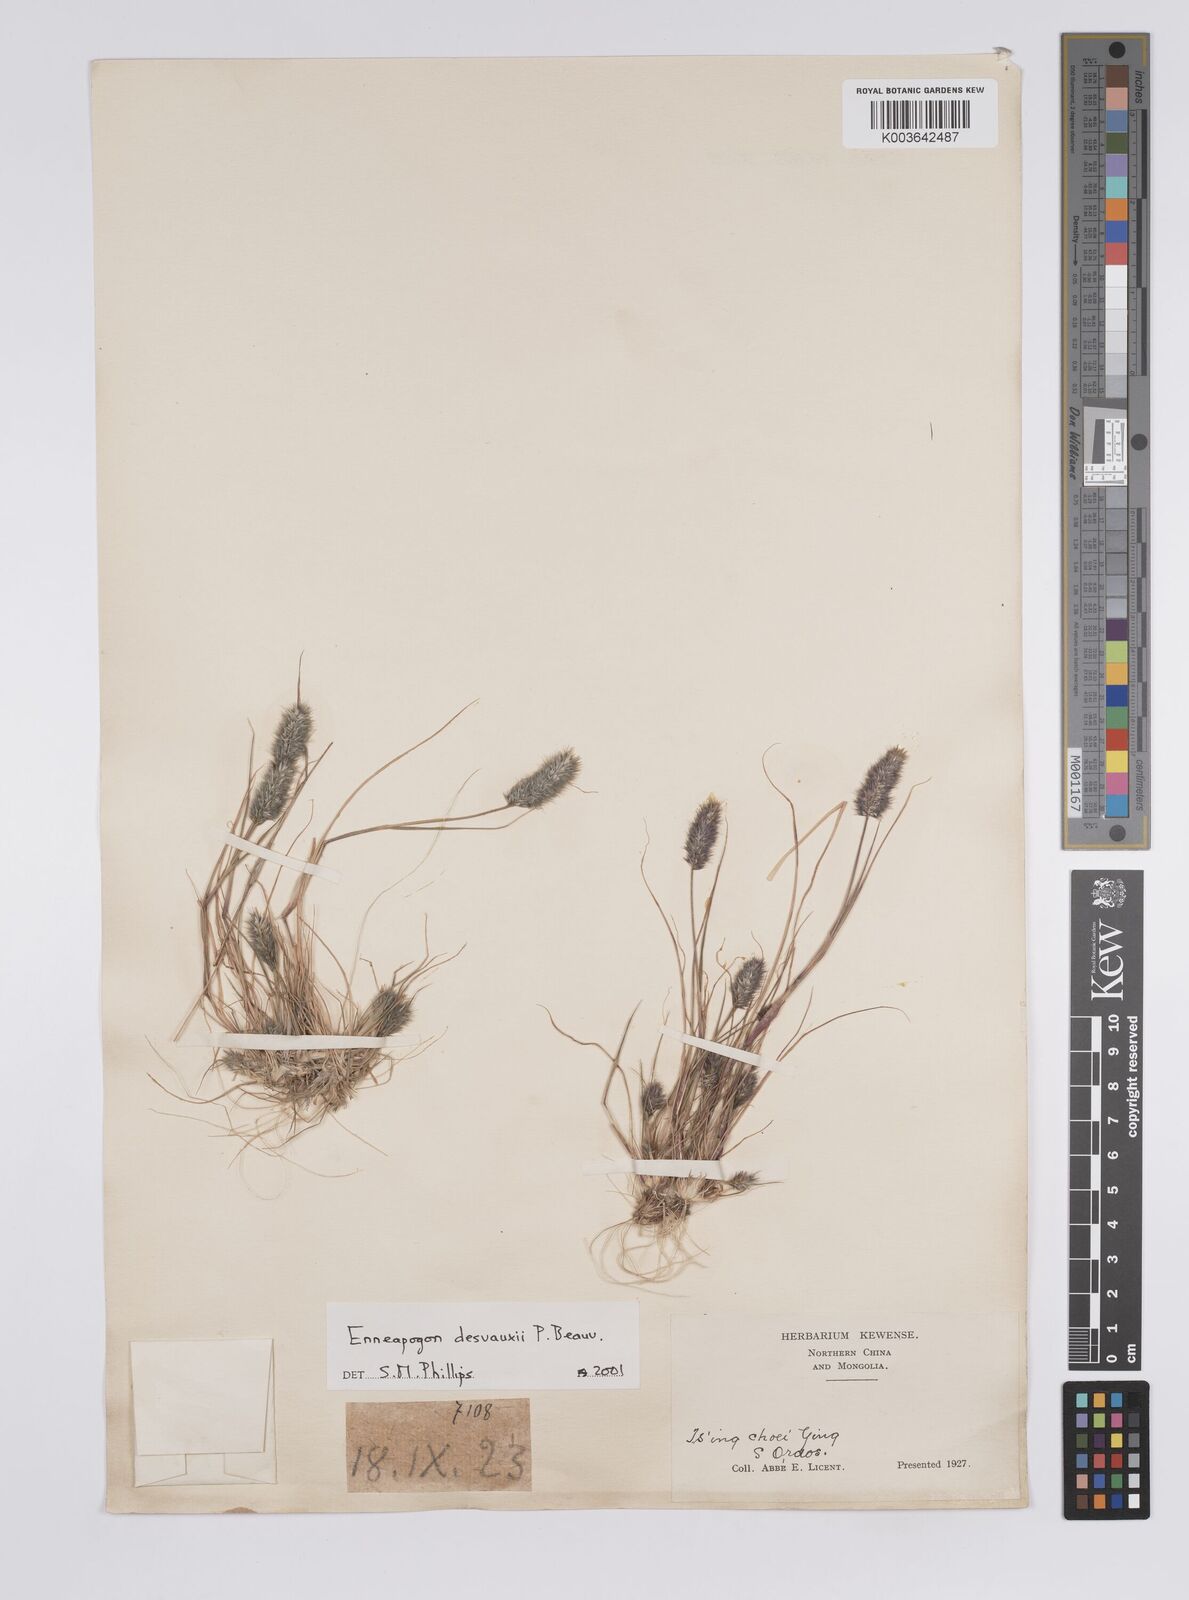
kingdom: Plantae
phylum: Tracheophyta
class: Liliopsida
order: Poales
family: Poaceae
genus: Enneapogon
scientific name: Enneapogon desvauxii
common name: Feather pappus grass
